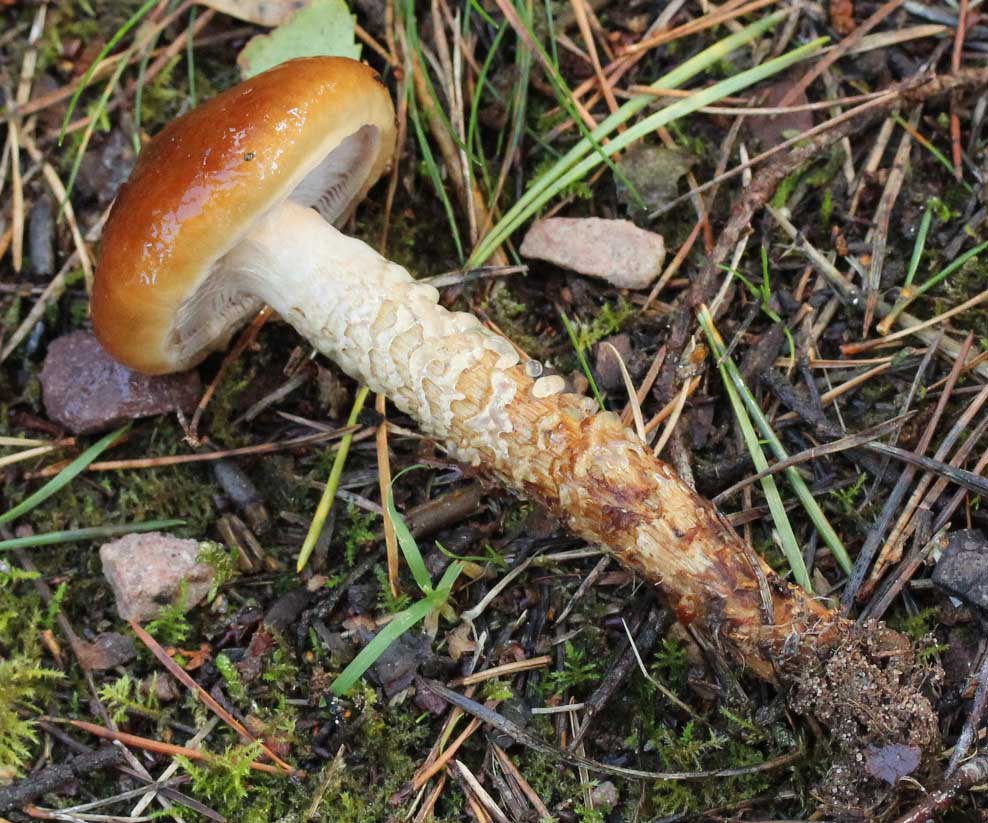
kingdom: Fungi
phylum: Basidiomycota
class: Agaricomycetes
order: Agaricales
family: Cortinariaceae
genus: Cortinarius
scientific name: Cortinarius collinitoides
